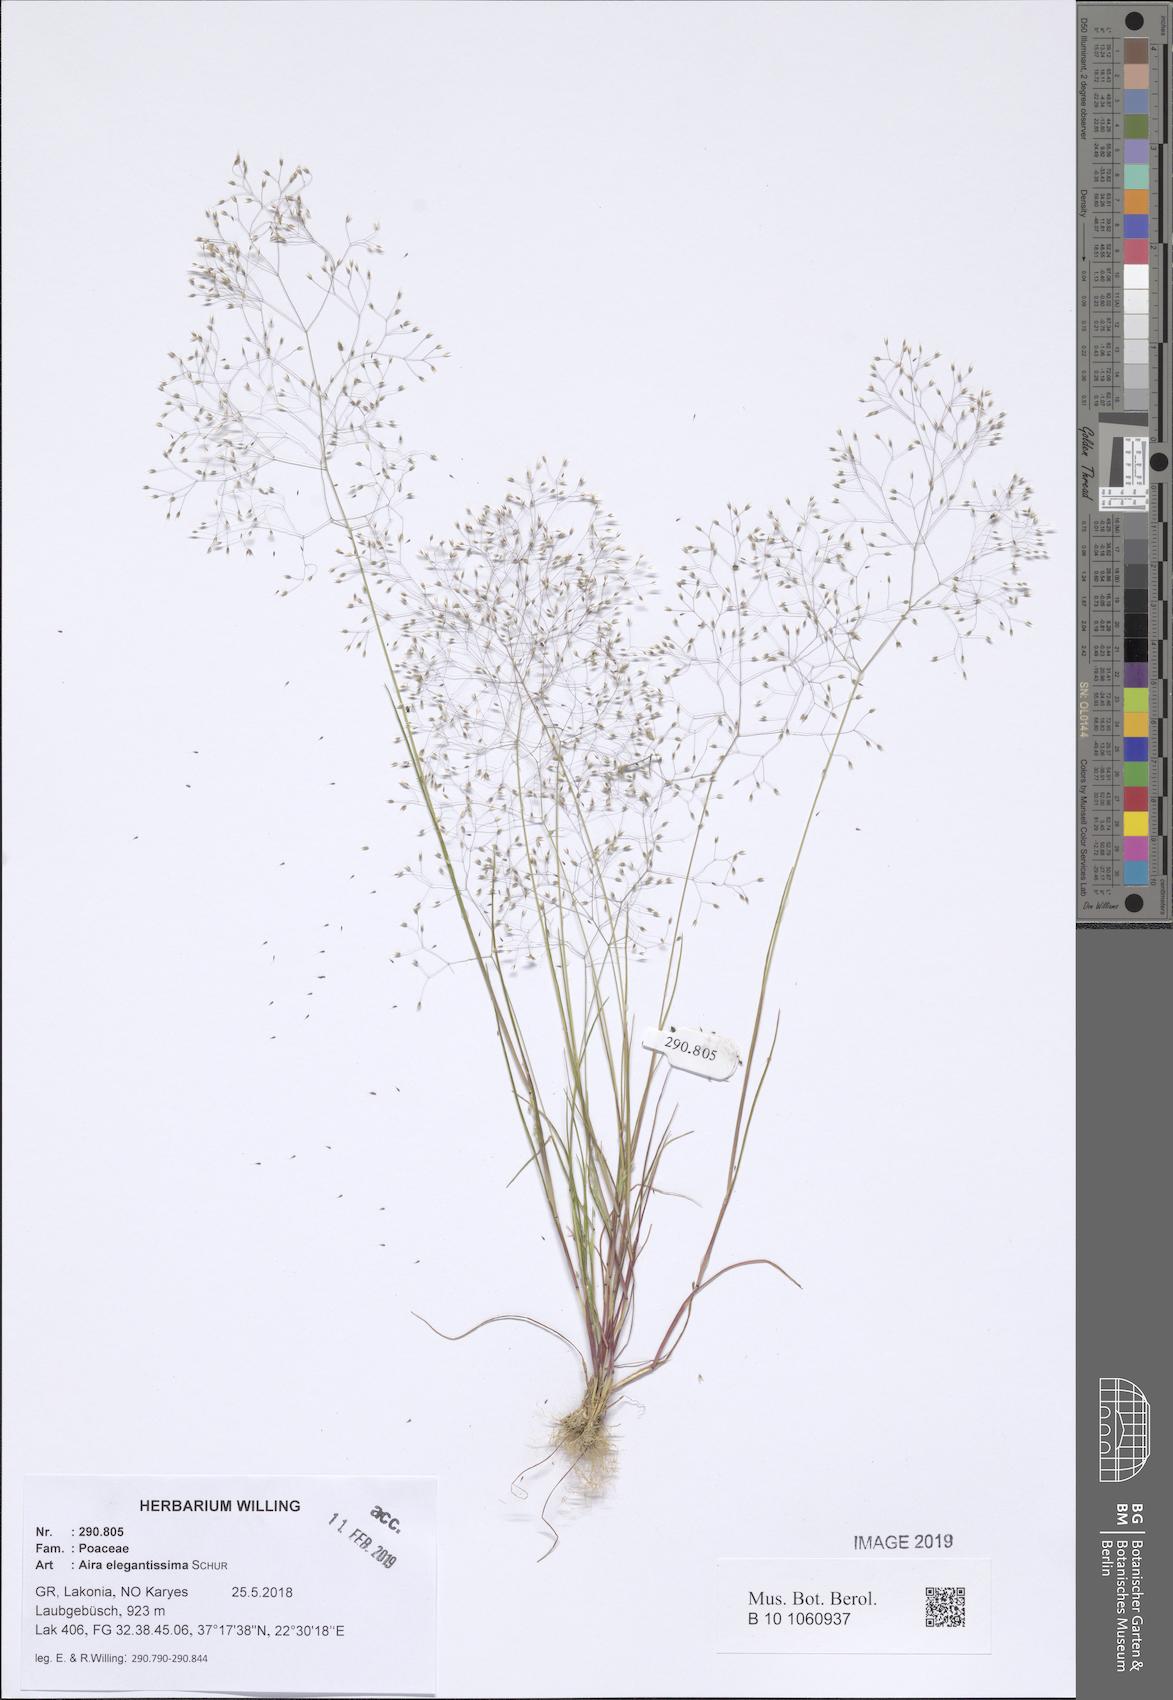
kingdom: Plantae
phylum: Tracheophyta
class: Liliopsida
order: Poales
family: Poaceae
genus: Aira
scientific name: Aira elegans
